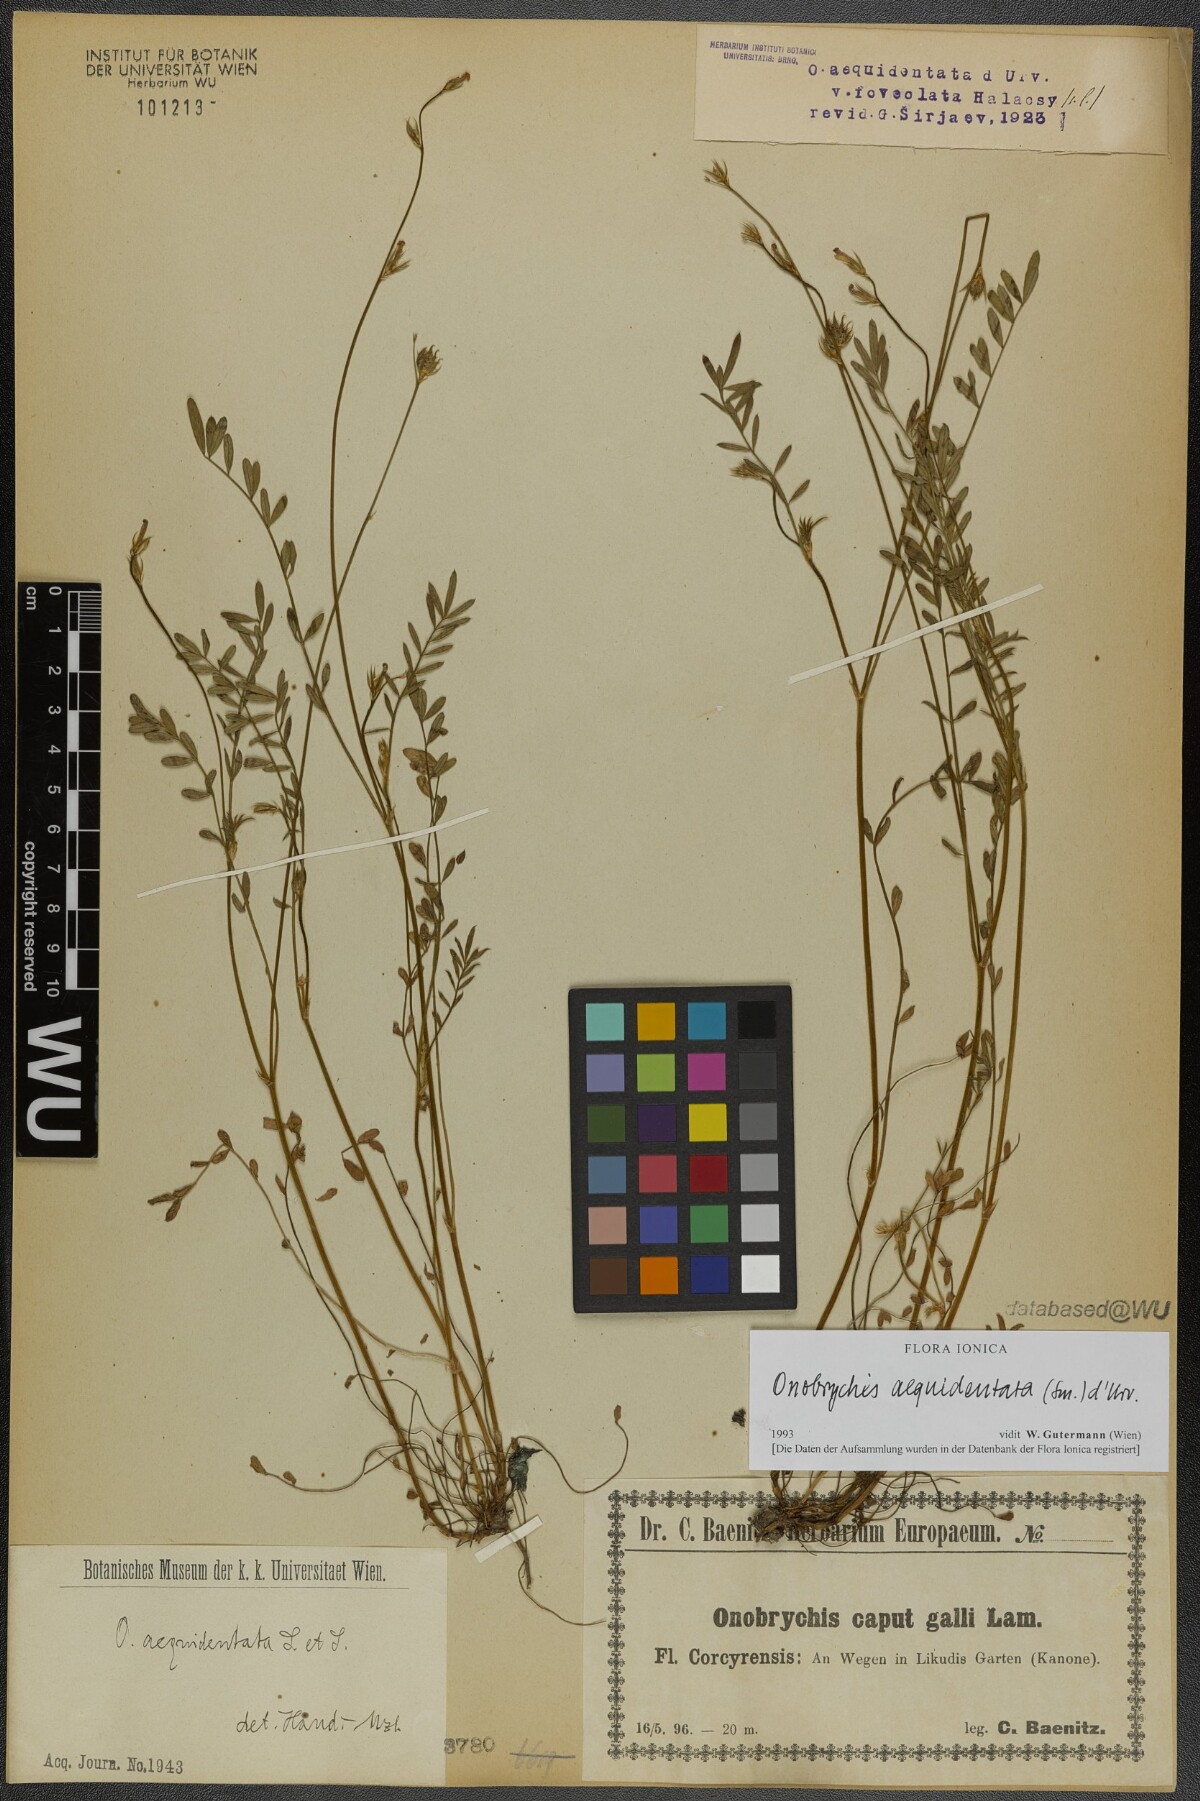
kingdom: Plantae
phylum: Tracheophyta
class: Magnoliopsida
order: Fabales
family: Fabaceae
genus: Onobrychis
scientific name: Onobrychis aequidentata
